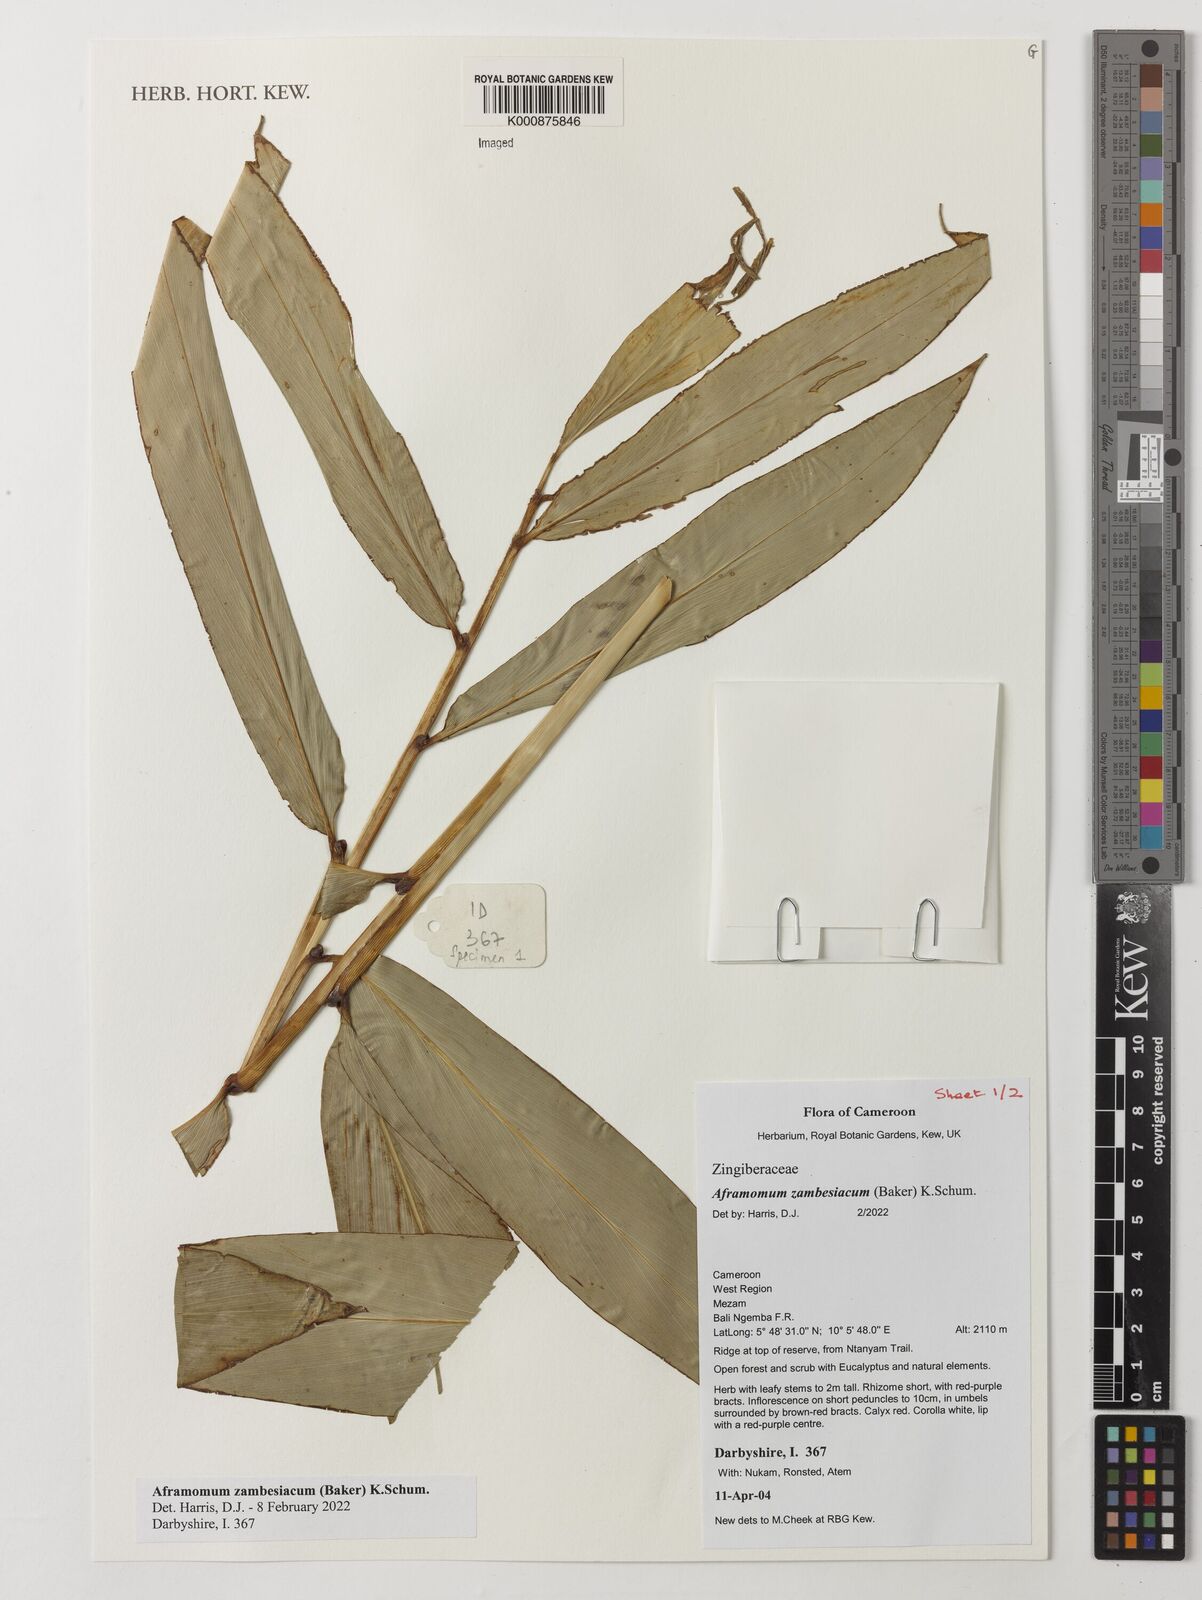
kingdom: Plantae
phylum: Tracheophyta
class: Liliopsida
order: Zingiberales
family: Zingiberaceae
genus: Aframomum
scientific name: Aframomum zambesiacum
